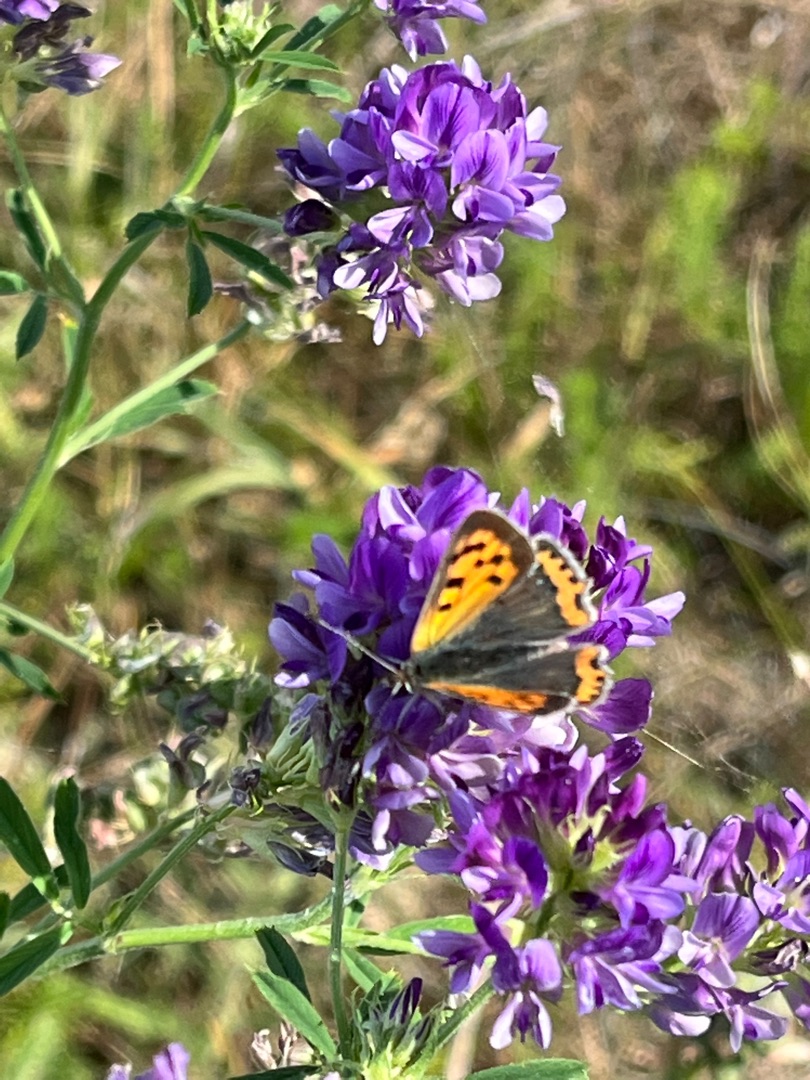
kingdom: Animalia
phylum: Arthropoda
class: Insecta
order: Lepidoptera
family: Lycaenidae
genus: Lycaena
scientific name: Lycaena phlaeas
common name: Lille ildfugl
